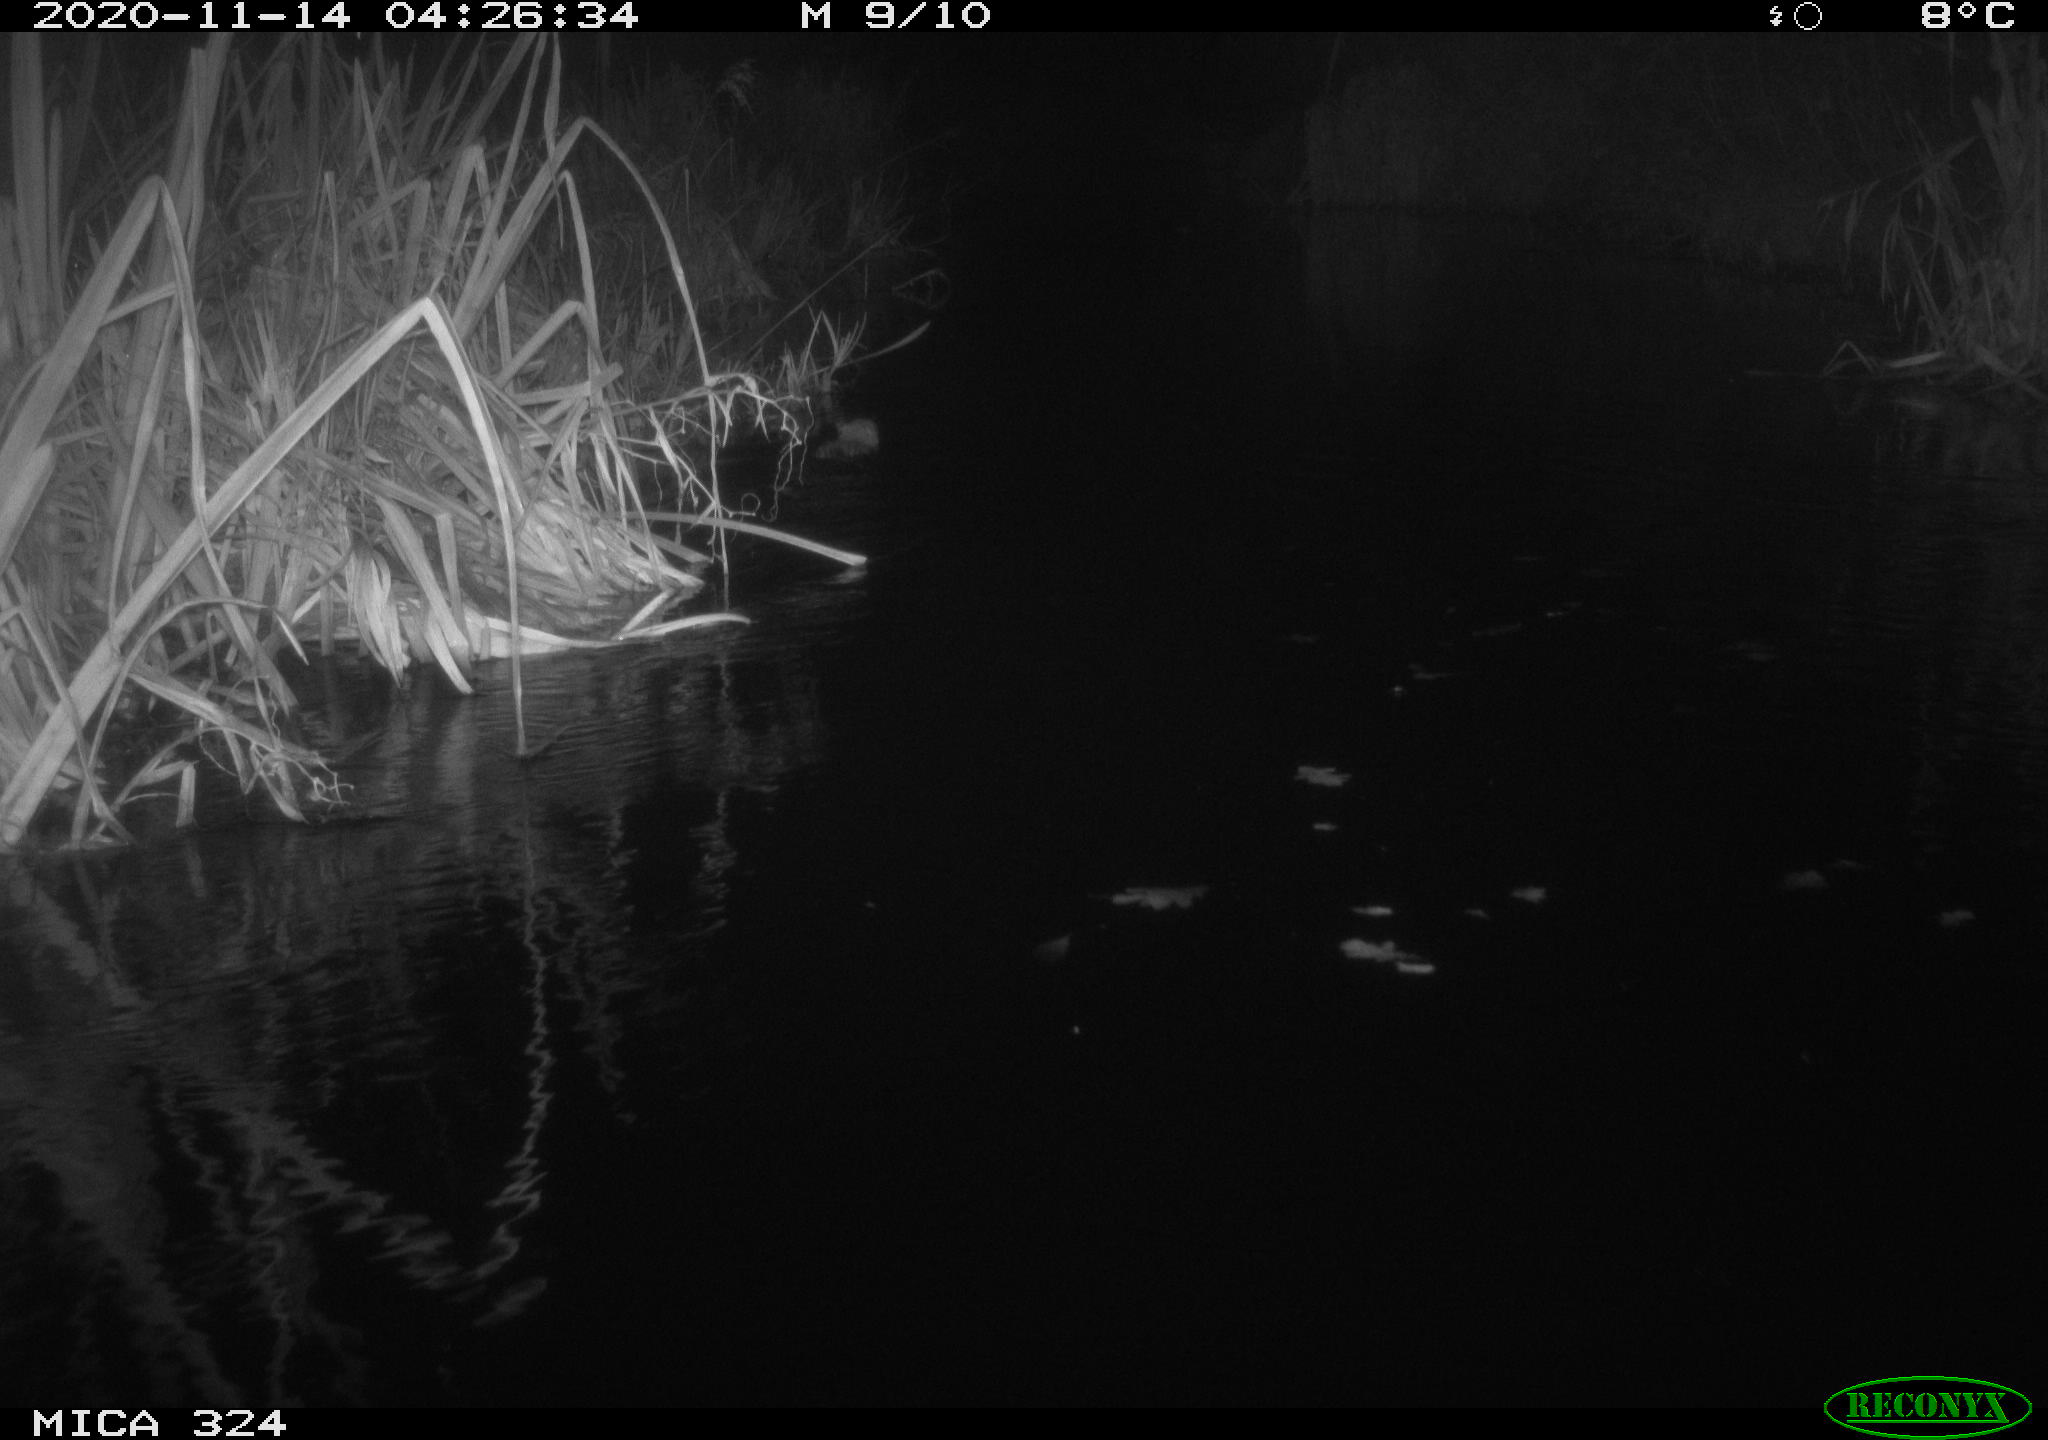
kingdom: Animalia
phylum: Chordata
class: Mammalia
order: Rodentia
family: Myocastoridae
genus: Myocastor
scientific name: Myocastor coypus
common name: Coypu
